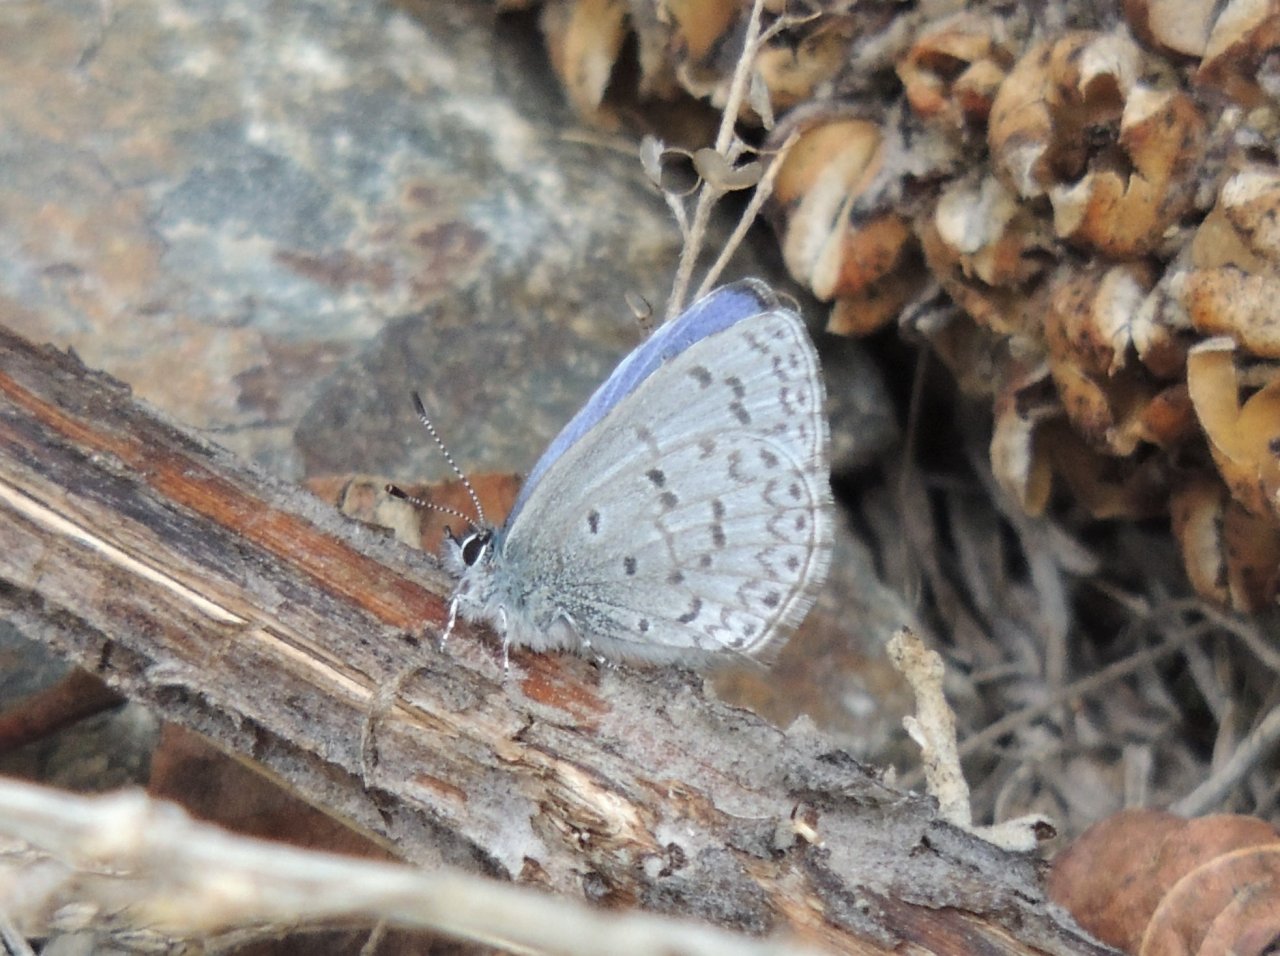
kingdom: Animalia
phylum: Arthropoda
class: Insecta
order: Lepidoptera
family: Lycaenidae
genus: Celastrina
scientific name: Celastrina ladon
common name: Echo Azure
